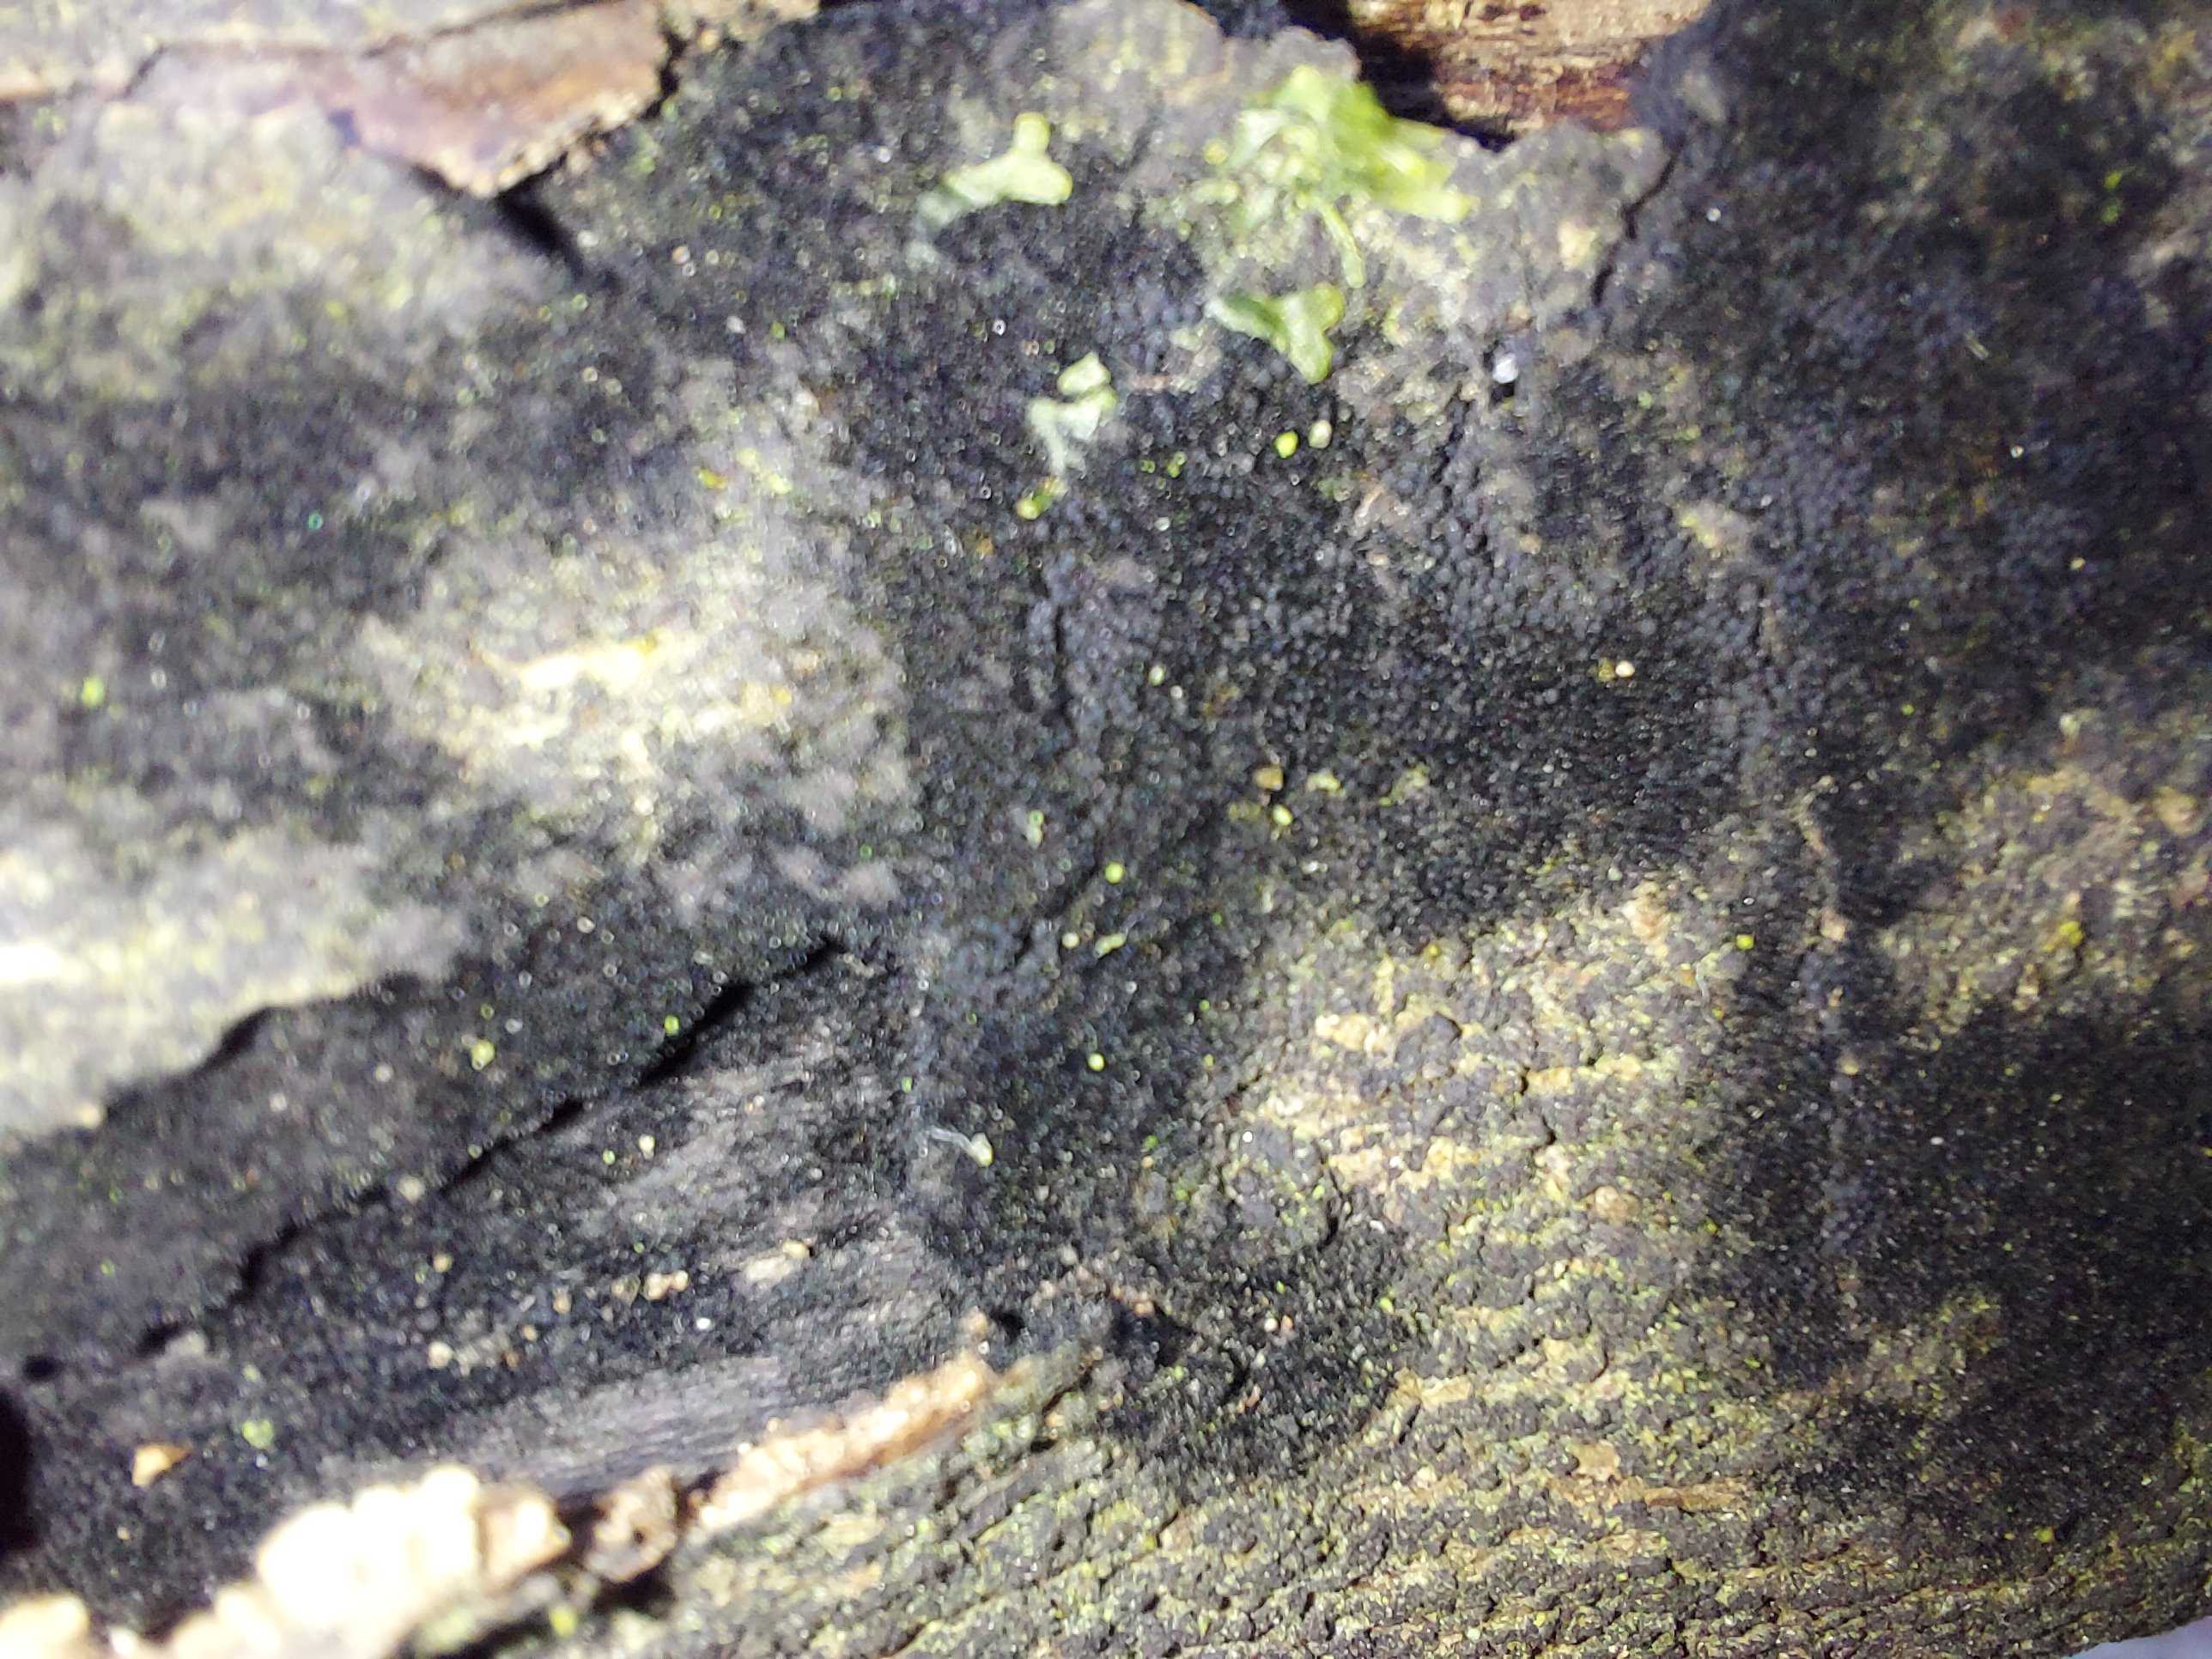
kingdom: Fungi
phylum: Ascomycota
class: Sordariomycetes
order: Coronophorales
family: Chaetosphaerellaceae
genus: Chaetosphaerella
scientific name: Chaetosphaerella phaeostroma
